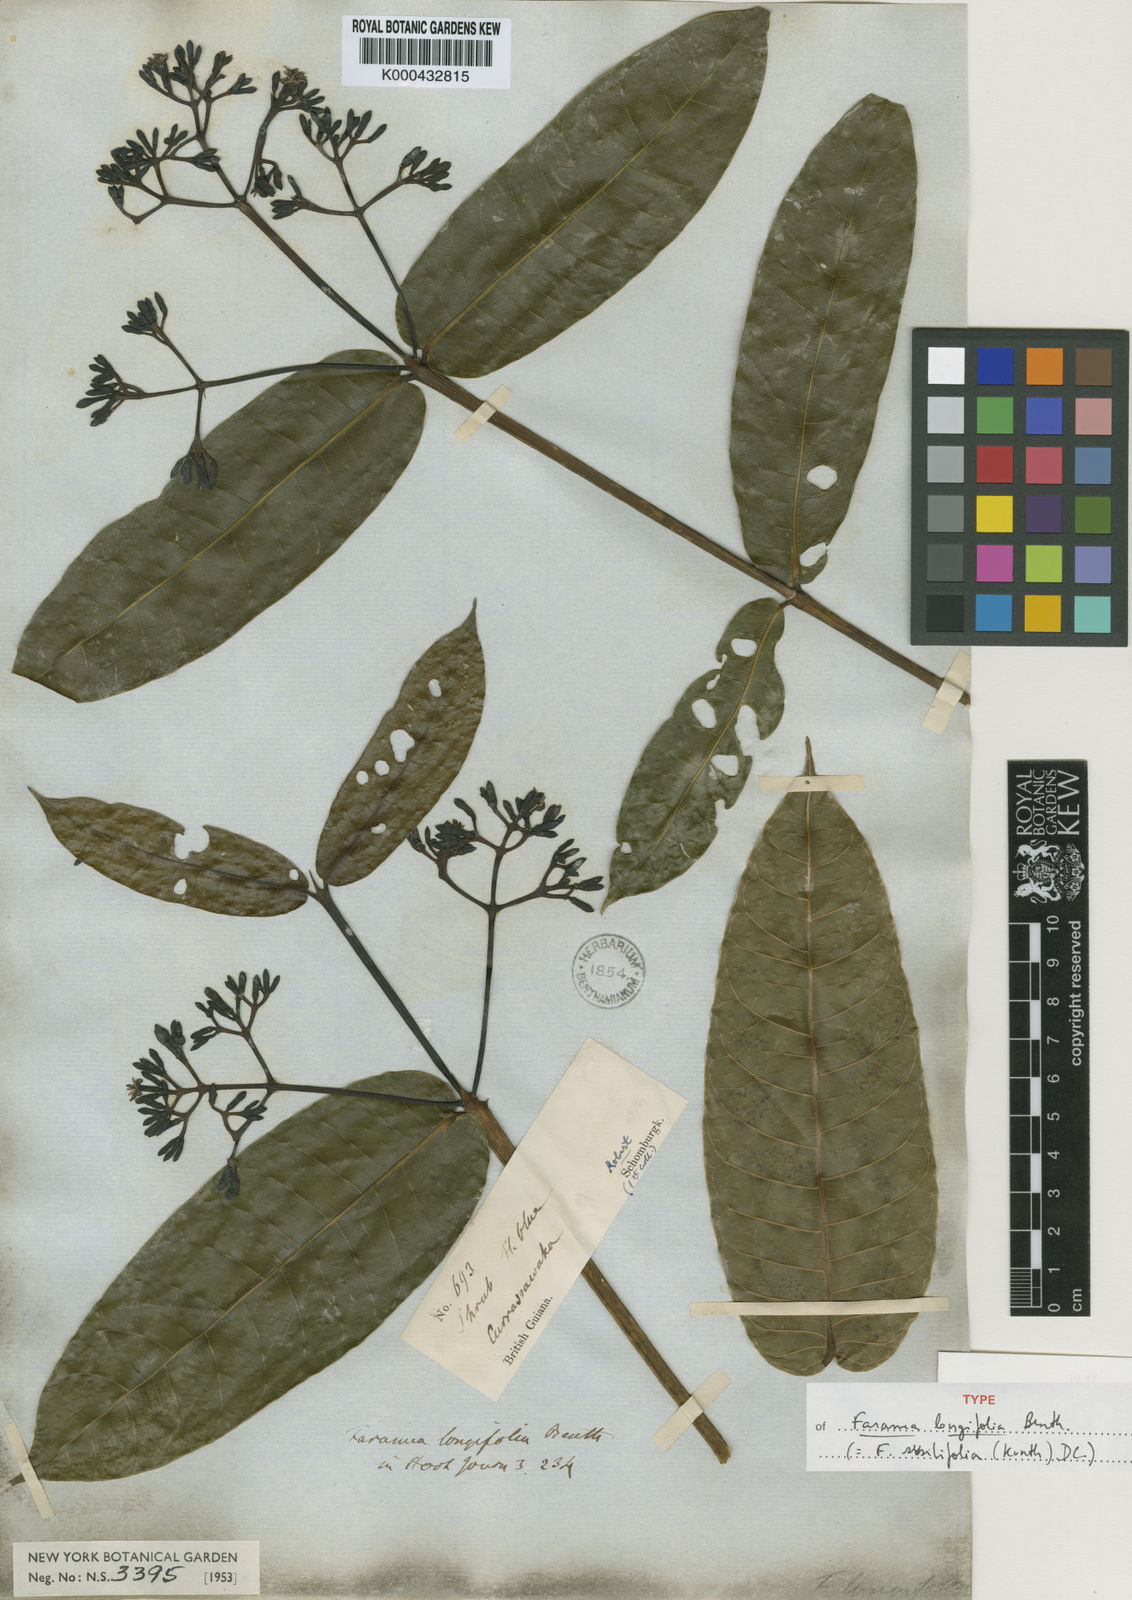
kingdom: Plantae
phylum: Tracheophyta
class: Magnoliopsida
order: Gentianales
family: Rubiaceae
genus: Faramea
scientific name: Faramea sessilifolia
